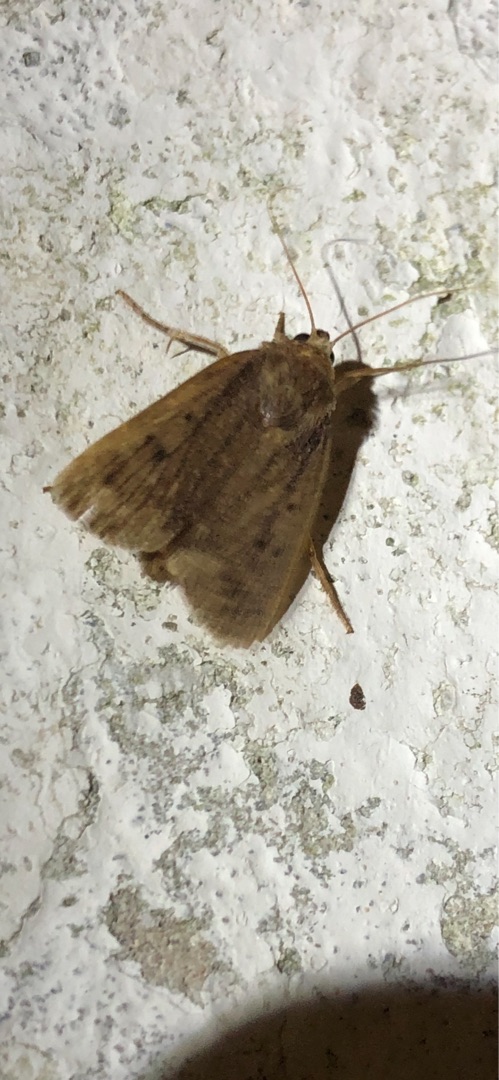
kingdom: Animalia
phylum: Arthropoda
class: Insecta
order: Lepidoptera
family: Noctuidae
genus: Amphipyra
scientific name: Amphipyra tragopoginis
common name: Blyantsugle
